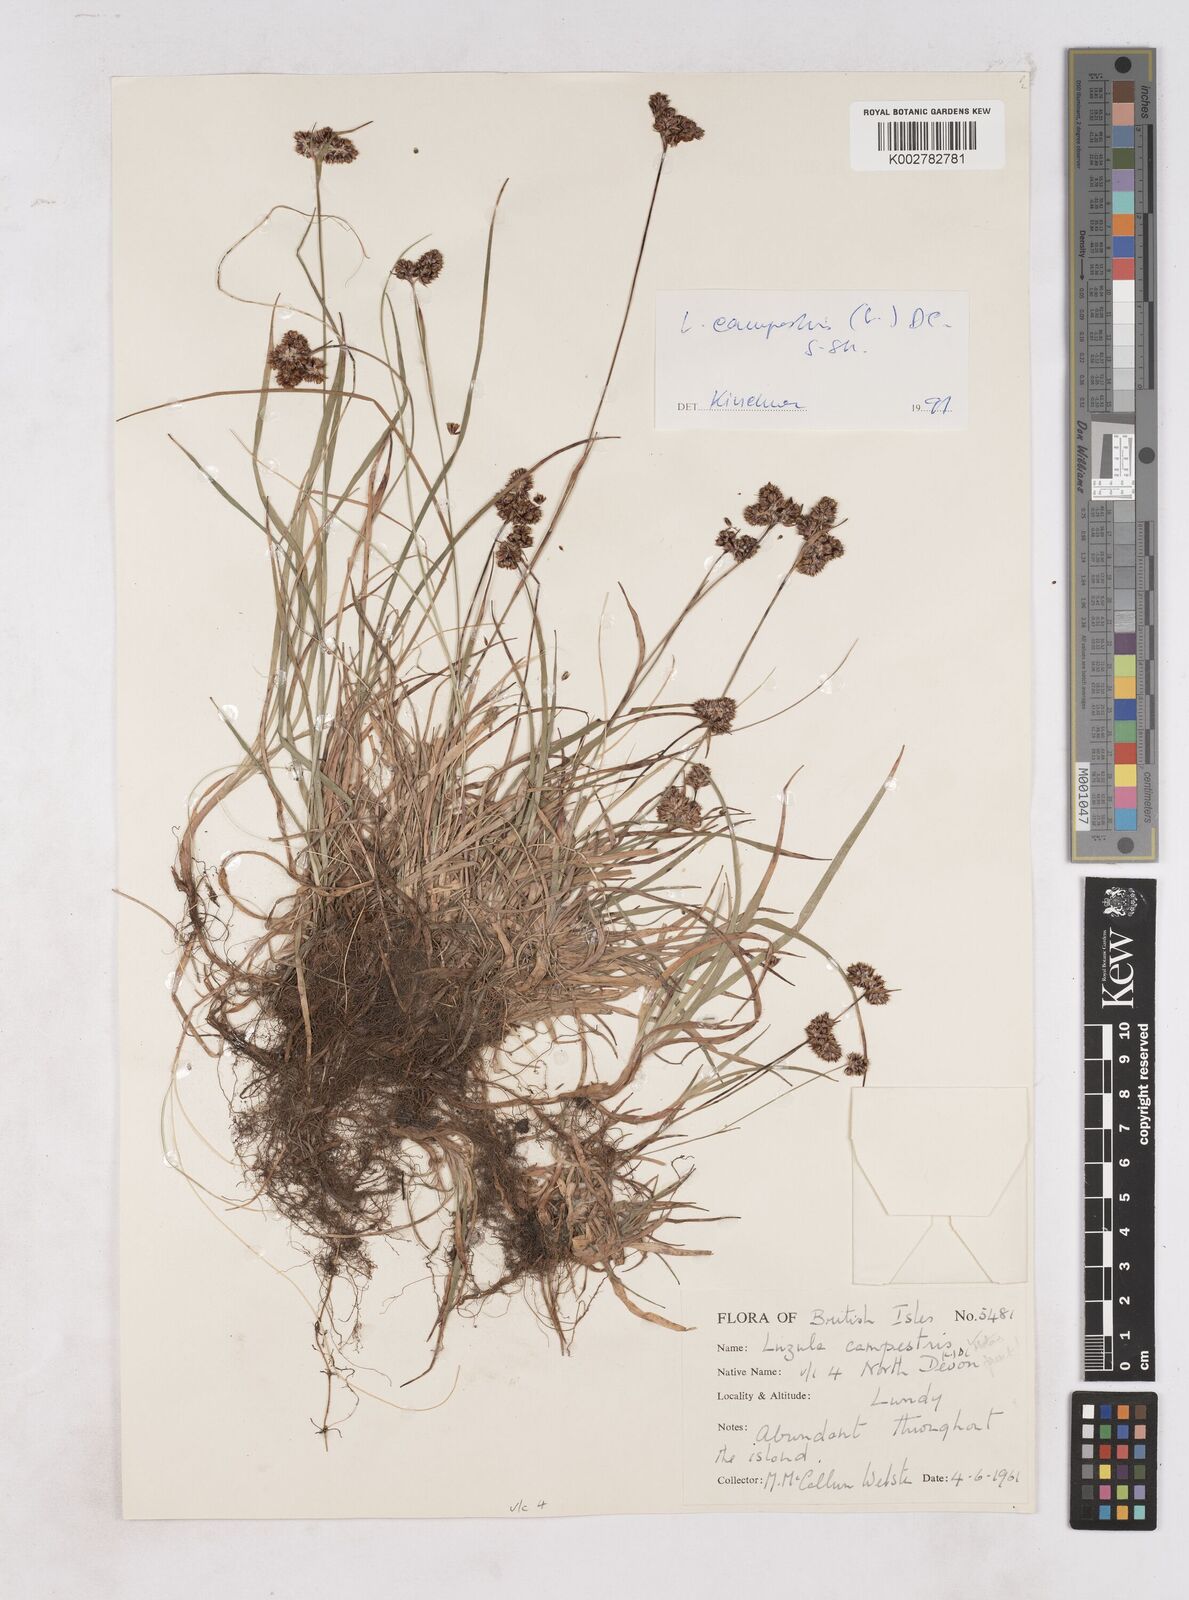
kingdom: Plantae
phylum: Tracheophyta
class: Liliopsida
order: Poales
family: Juncaceae
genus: Luzula
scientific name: Luzula campestris
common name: Field wood-rush
